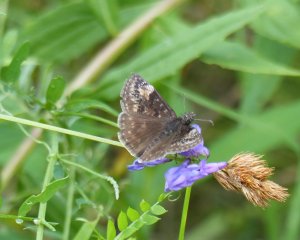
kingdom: Animalia
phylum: Arthropoda
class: Insecta
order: Lepidoptera
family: Hesperiidae
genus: Gesta
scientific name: Gesta
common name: Columbine Duskywing
